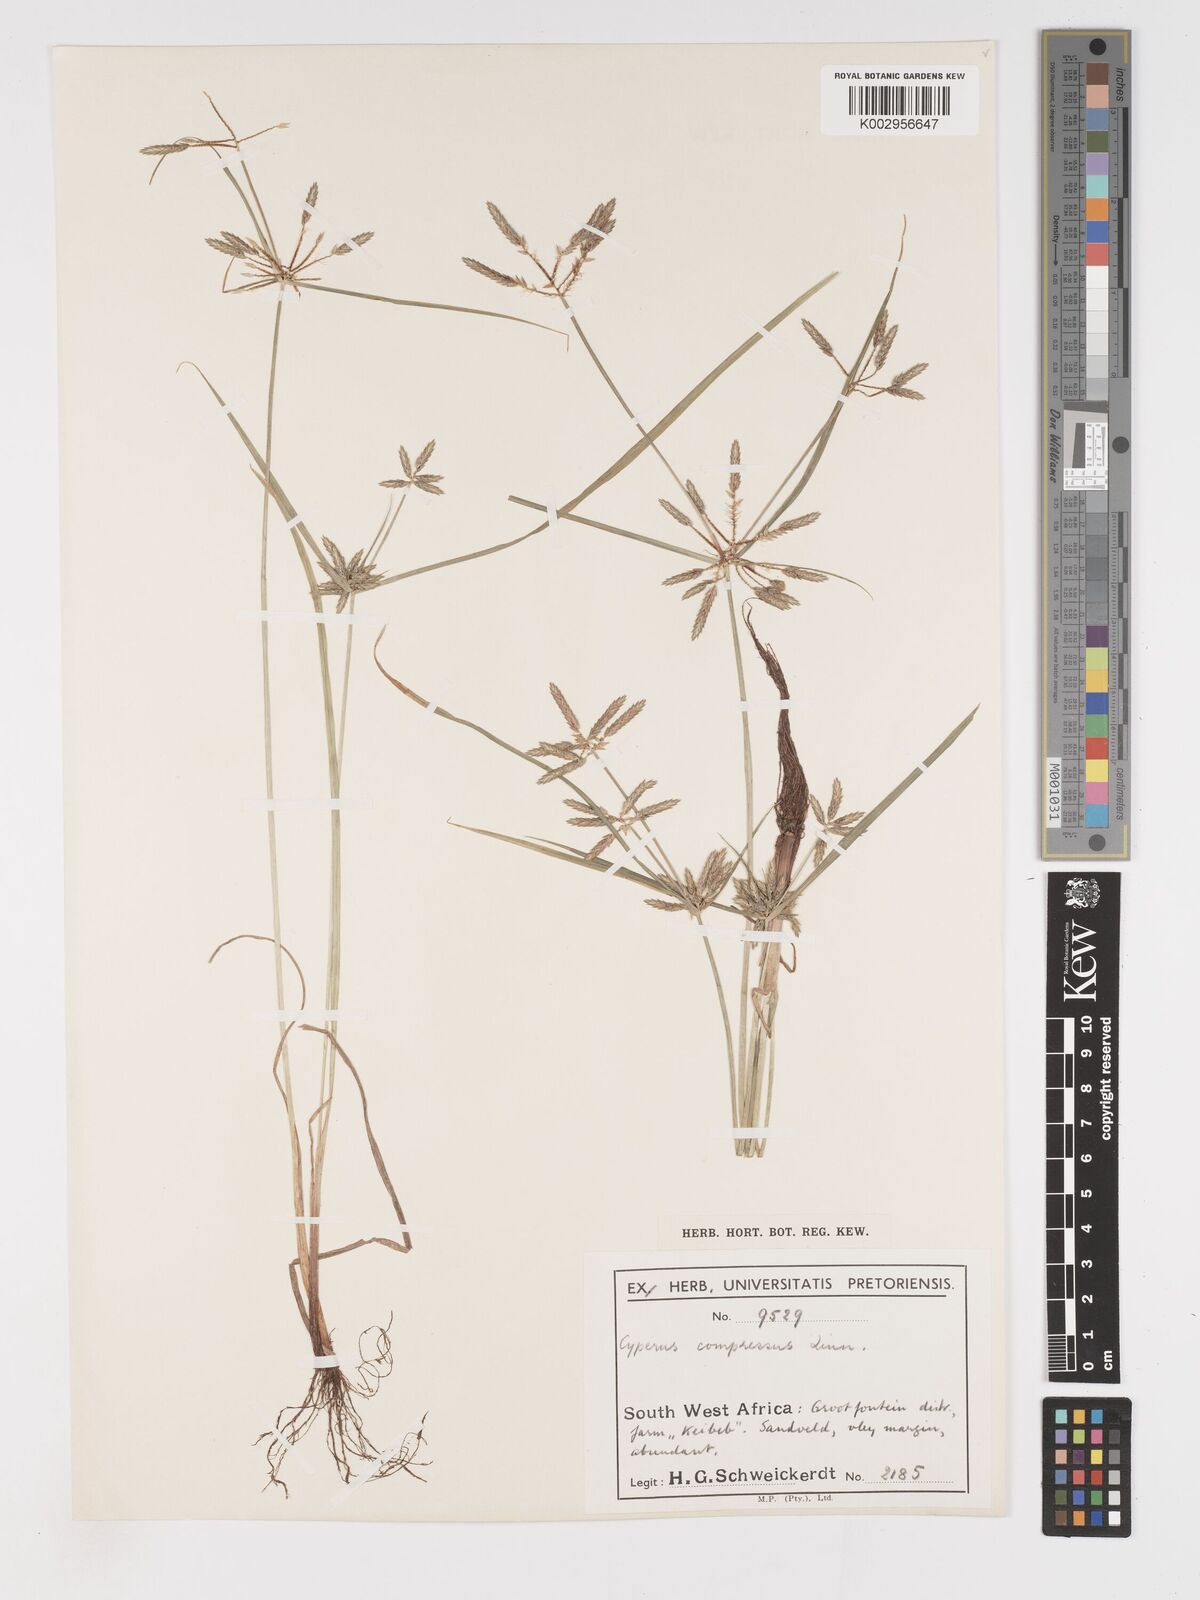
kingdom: Plantae
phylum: Tracheophyta
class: Liliopsida
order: Poales
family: Cyperaceae
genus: Cyperus
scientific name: Cyperus compressus
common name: Poorland flatsedge
